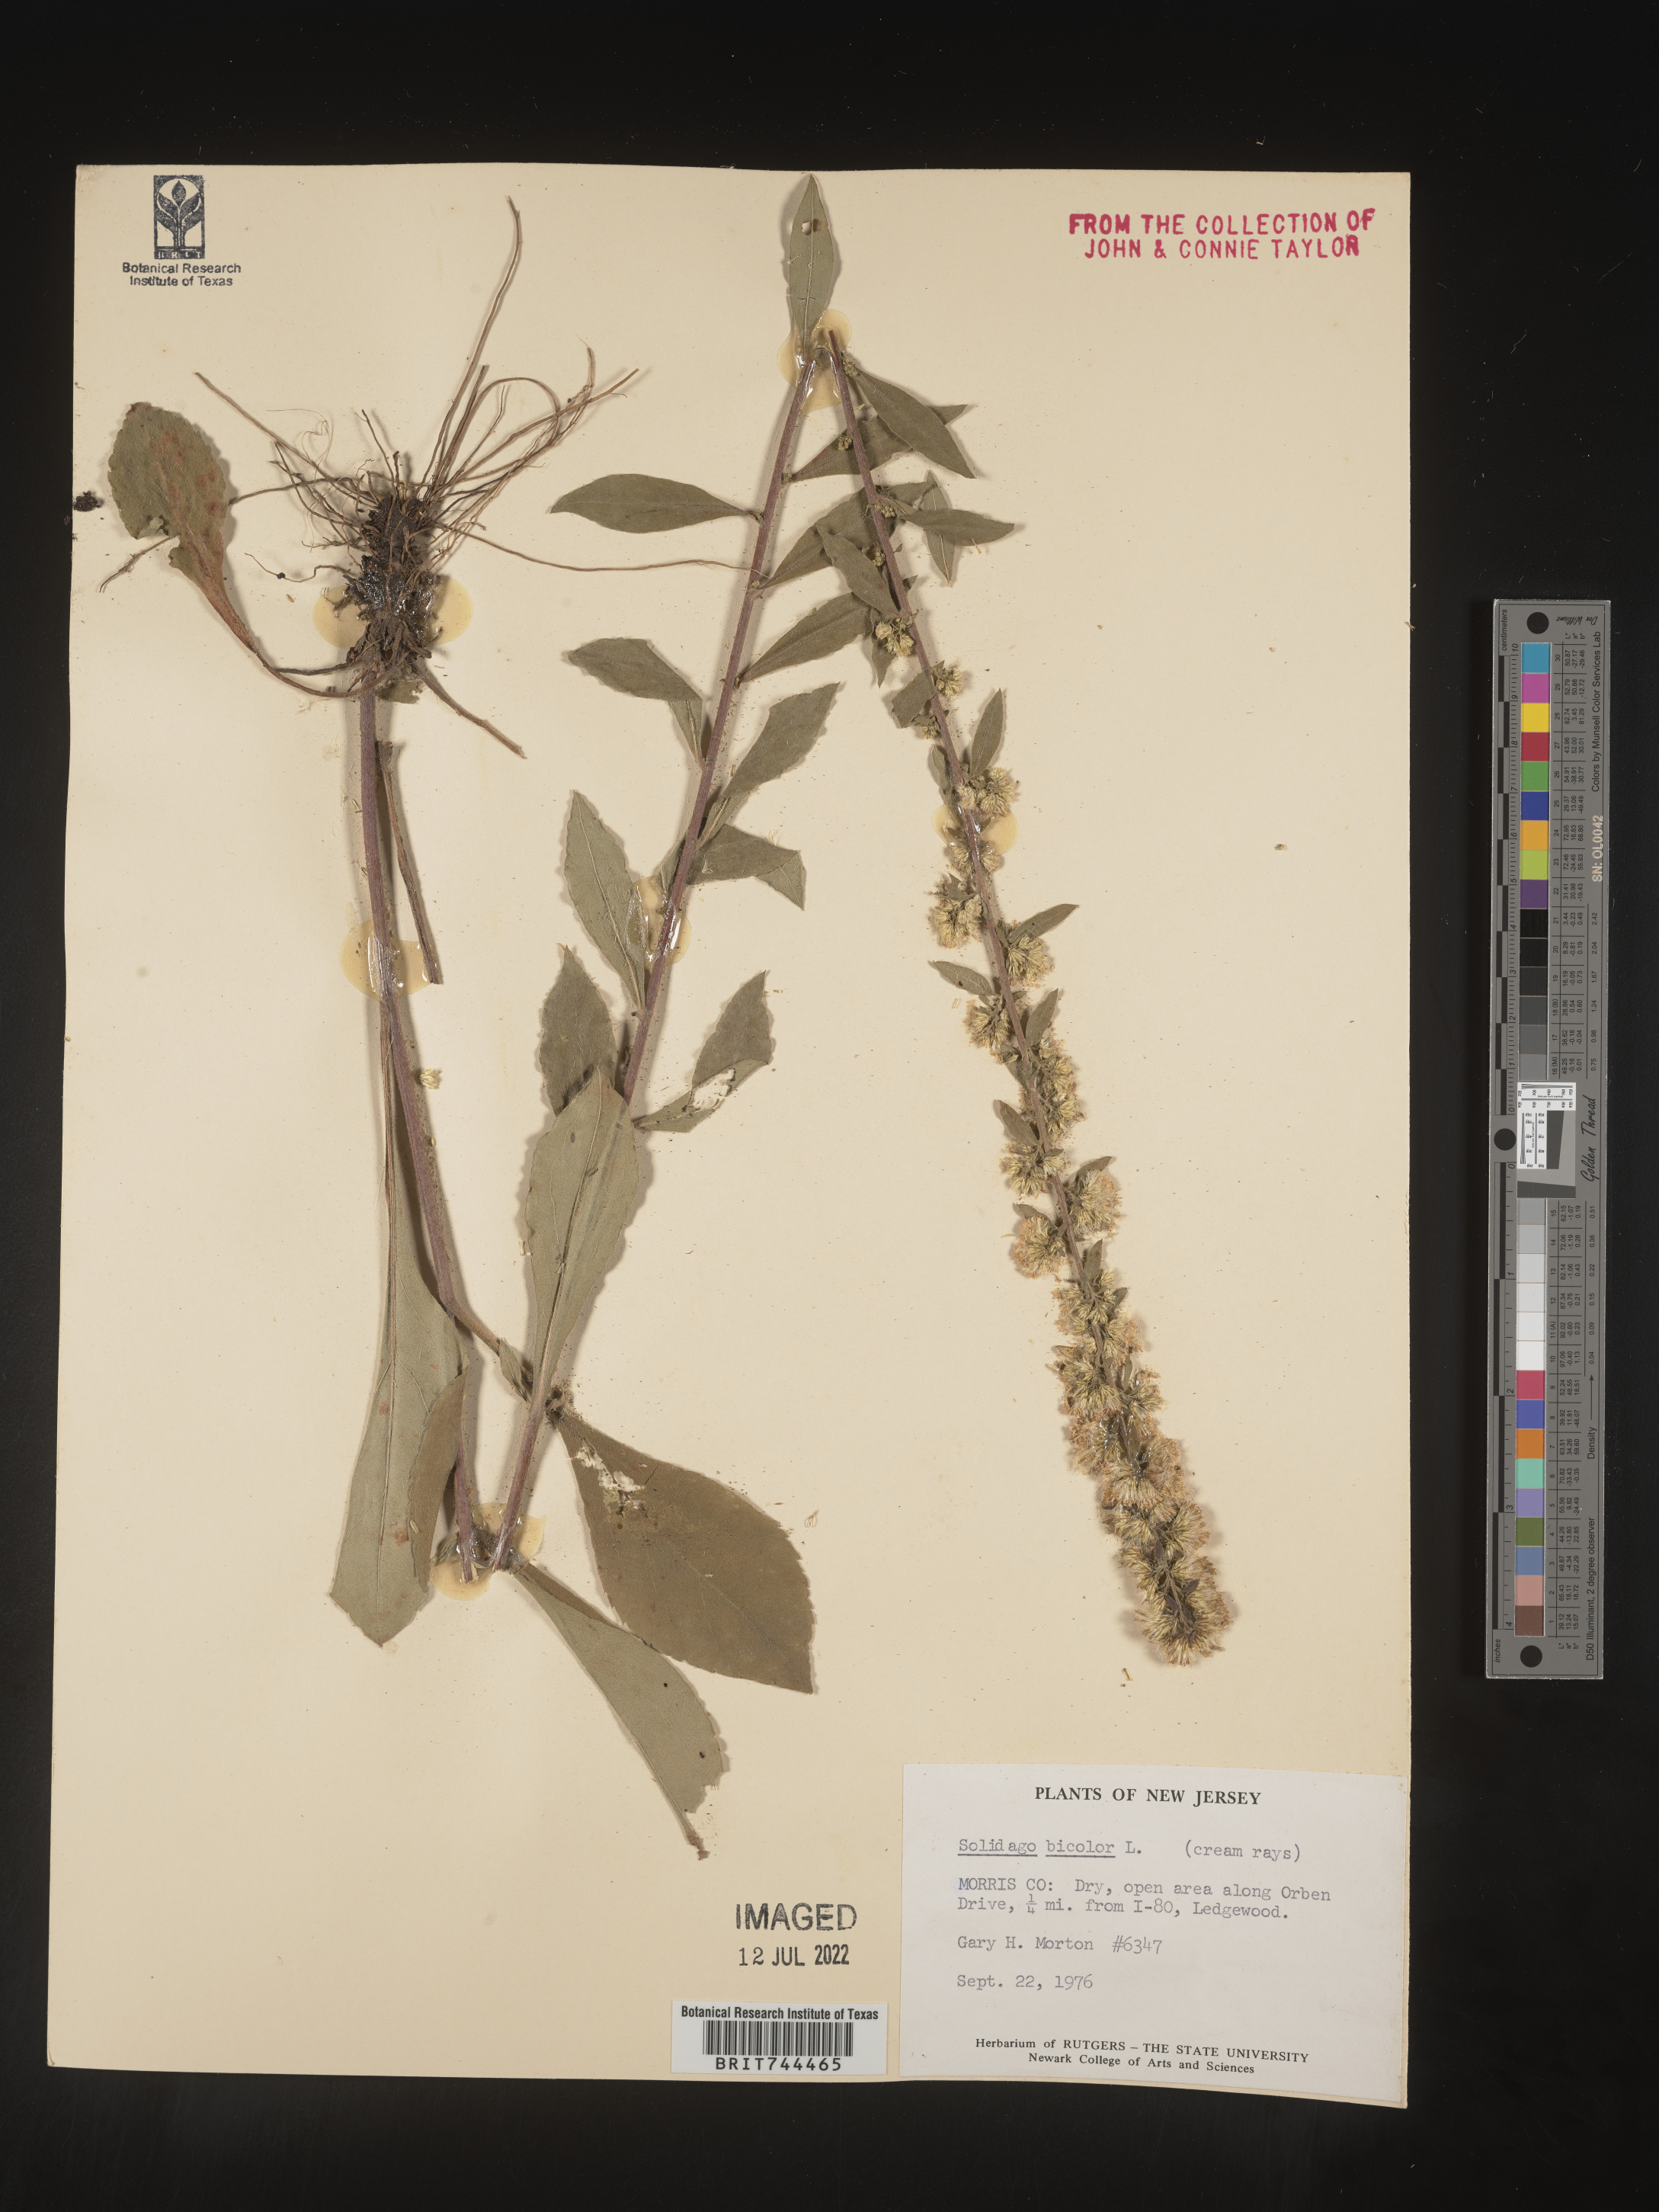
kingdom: Plantae
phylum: Tracheophyta
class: Magnoliopsida
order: Asterales
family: Asteraceae
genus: Solidago
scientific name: Solidago bicolor
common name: Silverrod
